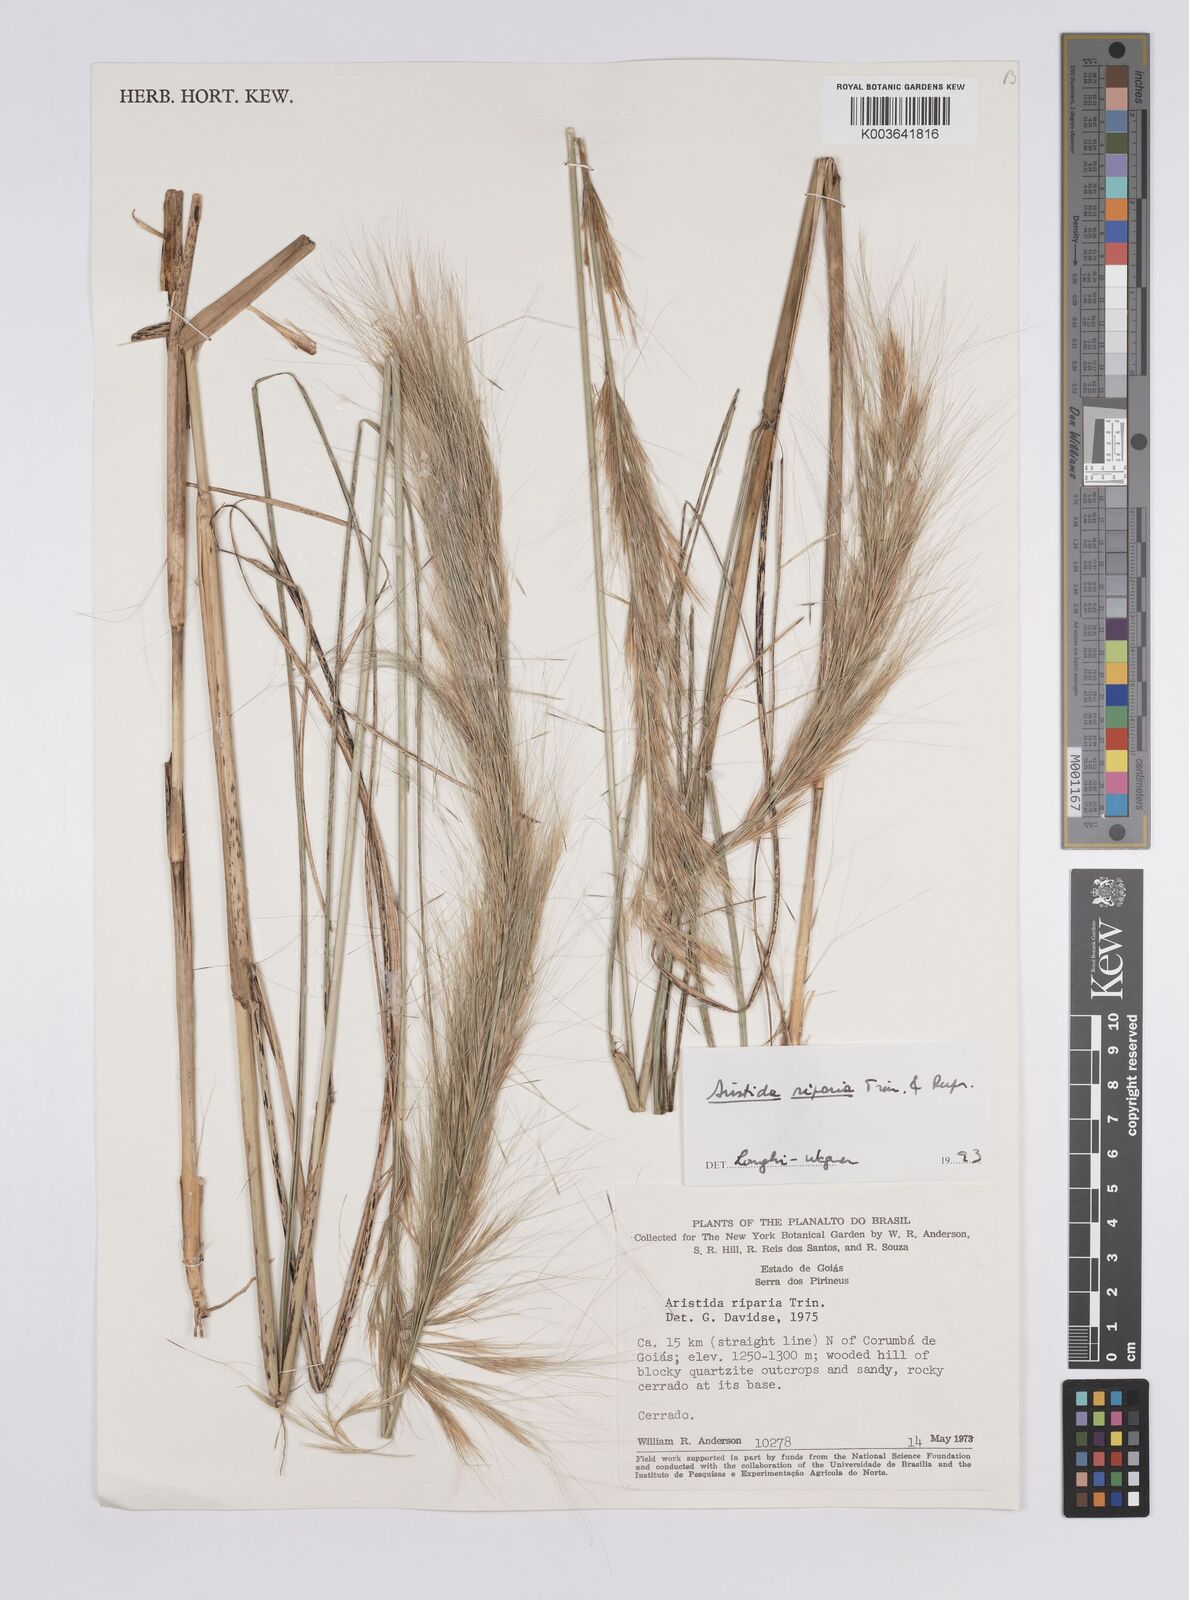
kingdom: Plantae
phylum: Tracheophyta
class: Liliopsida
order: Poales
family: Poaceae
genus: Aristida
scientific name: Aristida riparia
